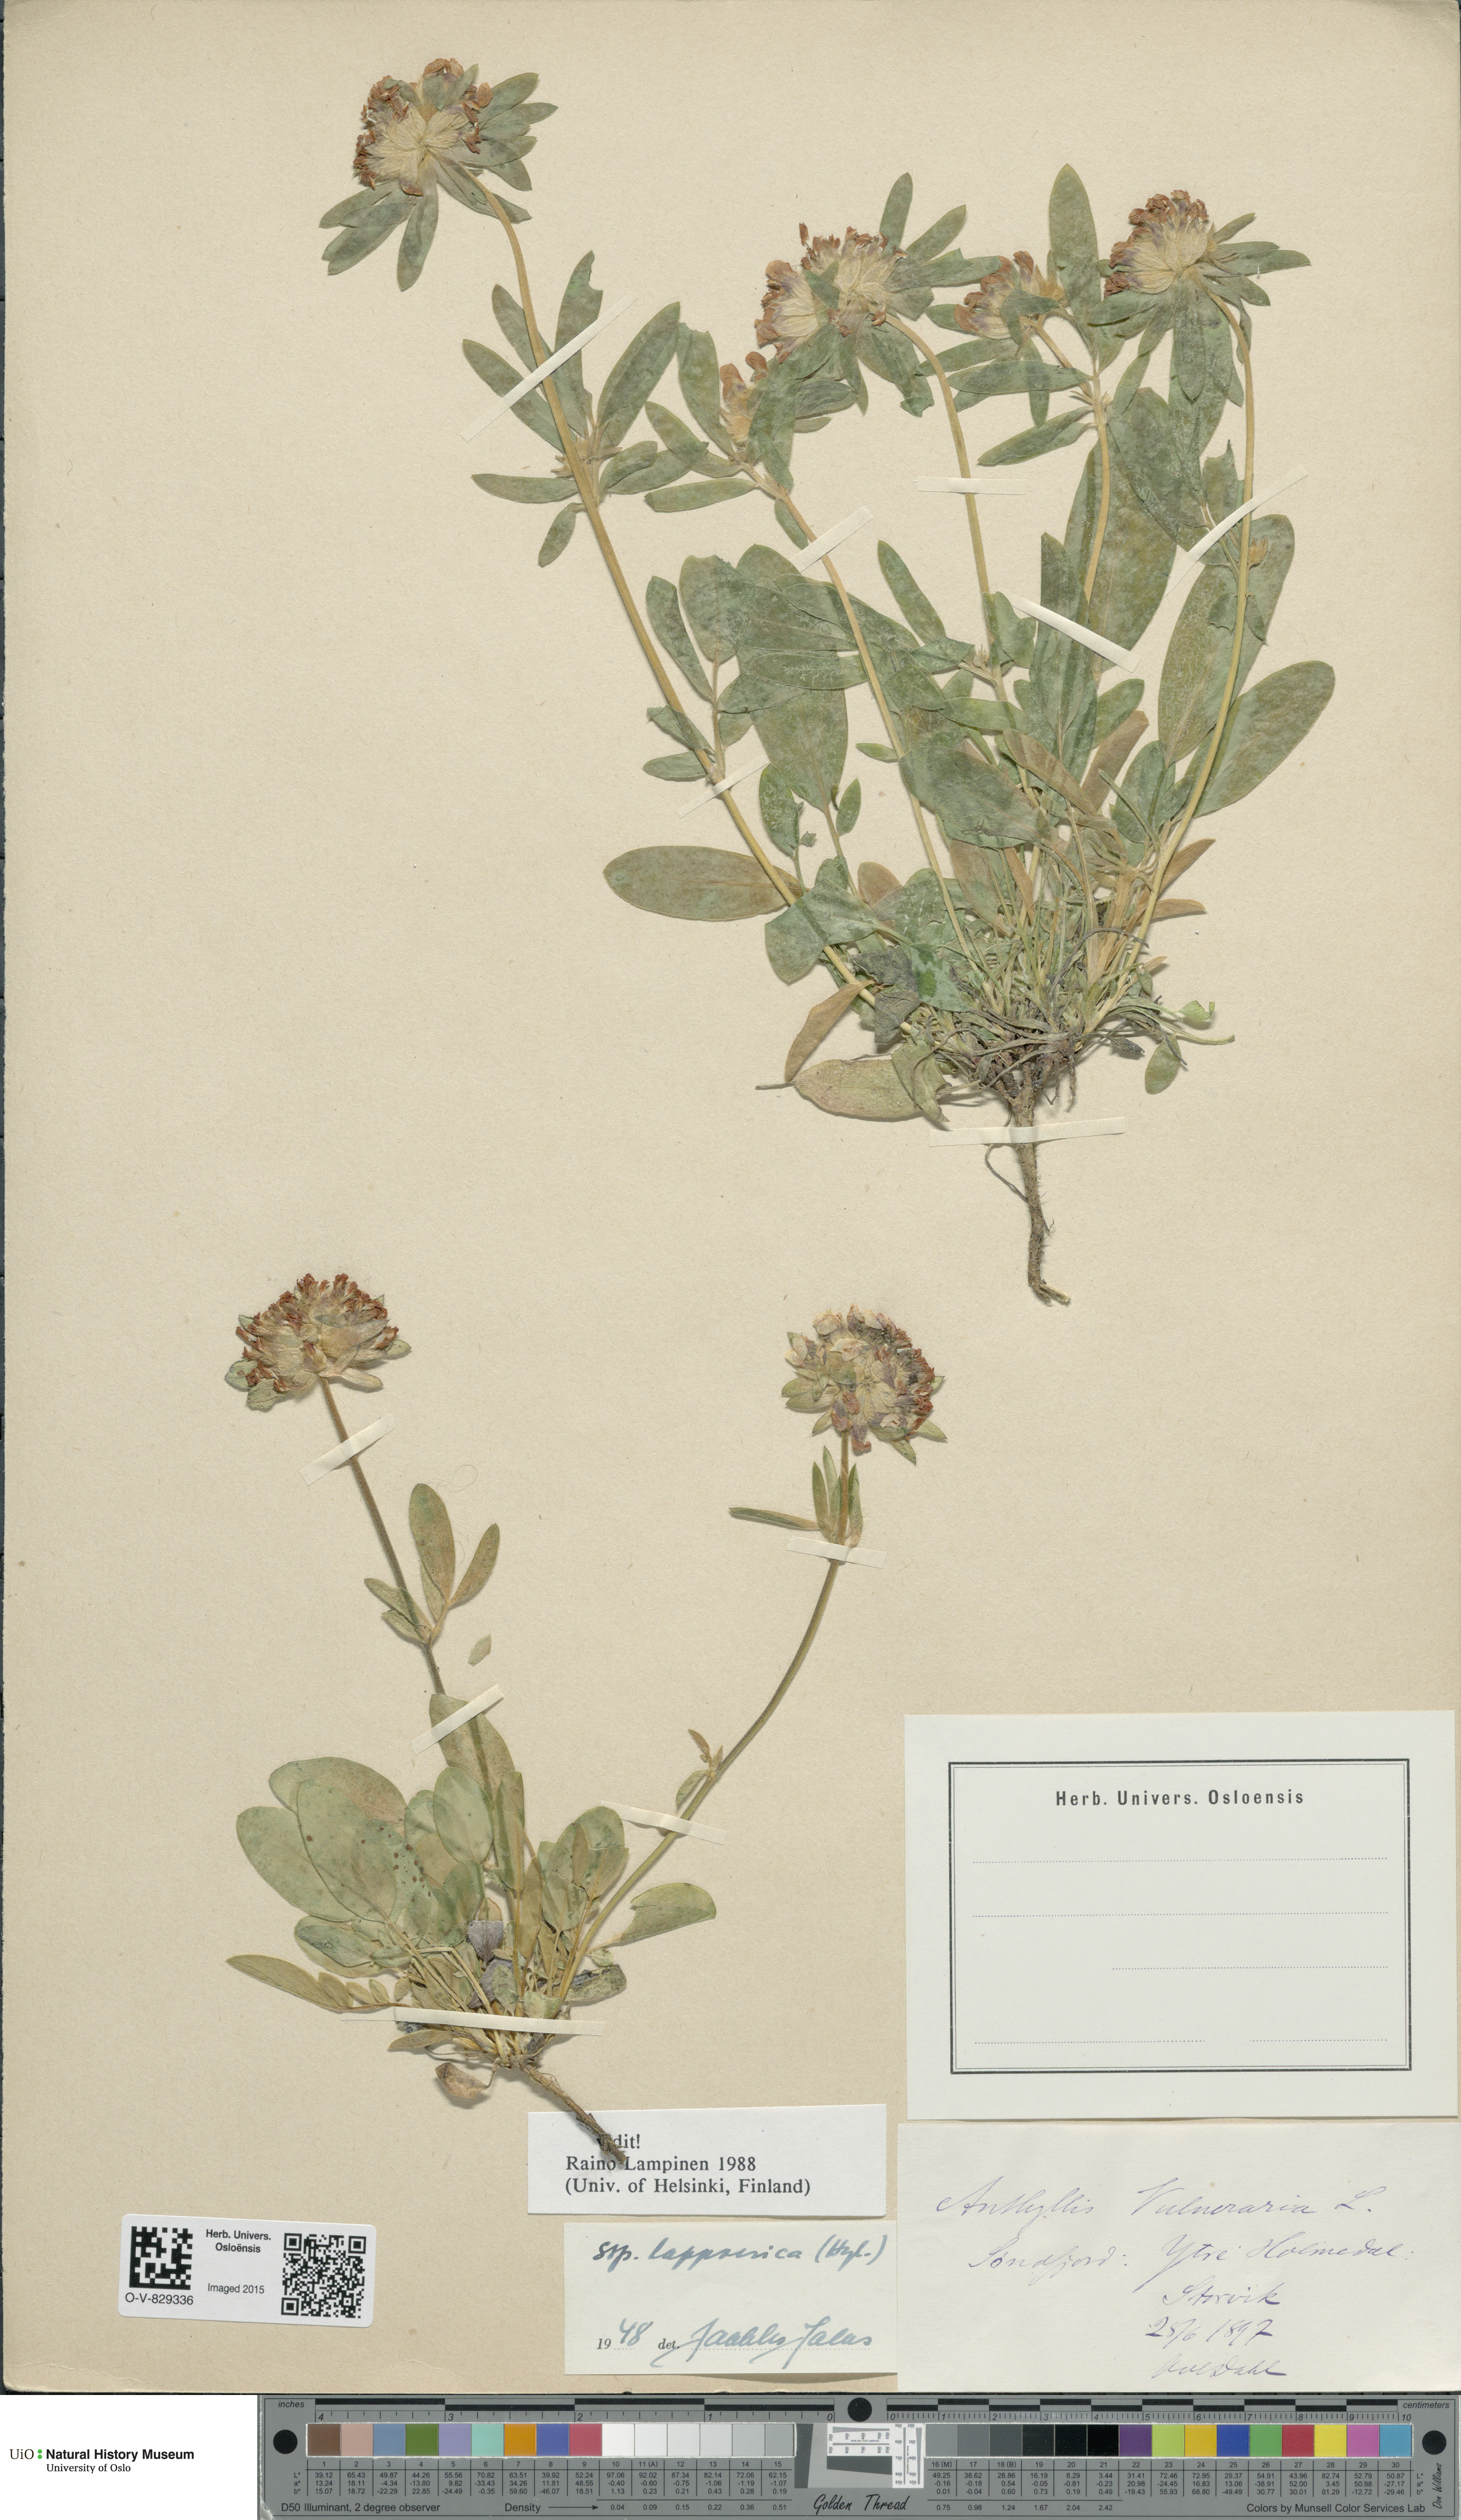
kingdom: Plantae
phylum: Tracheophyta
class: Magnoliopsida
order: Fabales
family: Fabaceae
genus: Anthyllis
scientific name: Anthyllis vulneraria
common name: Kidney vetch
